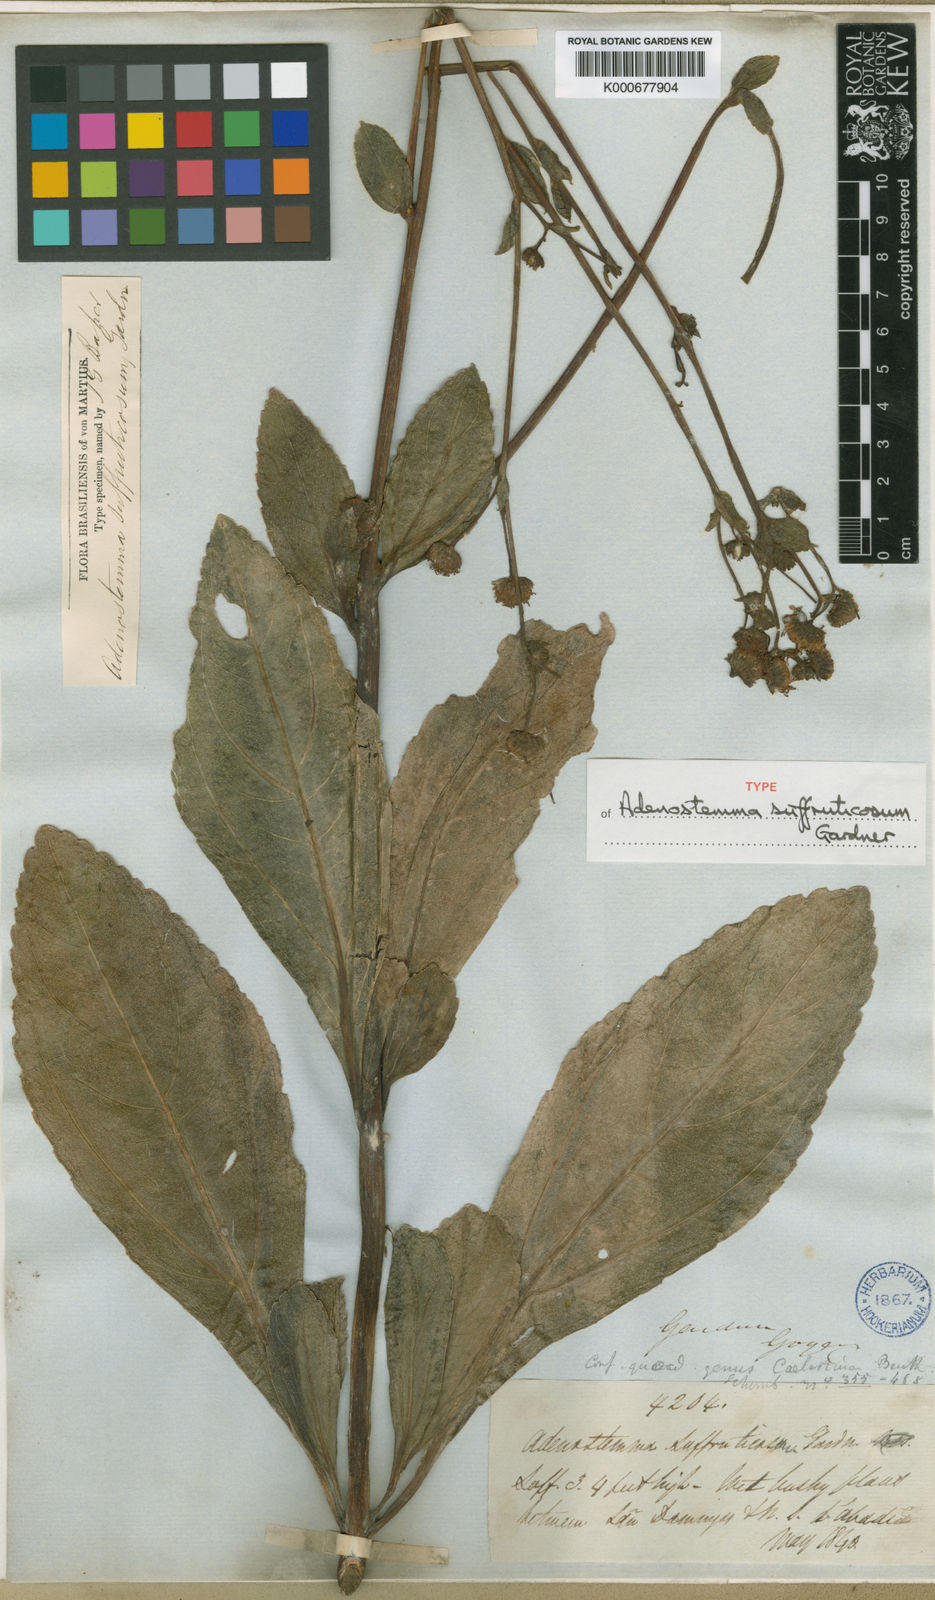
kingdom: Plantae
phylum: Tracheophyta
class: Magnoliopsida
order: Asterales
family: Asteraceae
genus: Adenostemma
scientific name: Adenostemma suffruticosum
